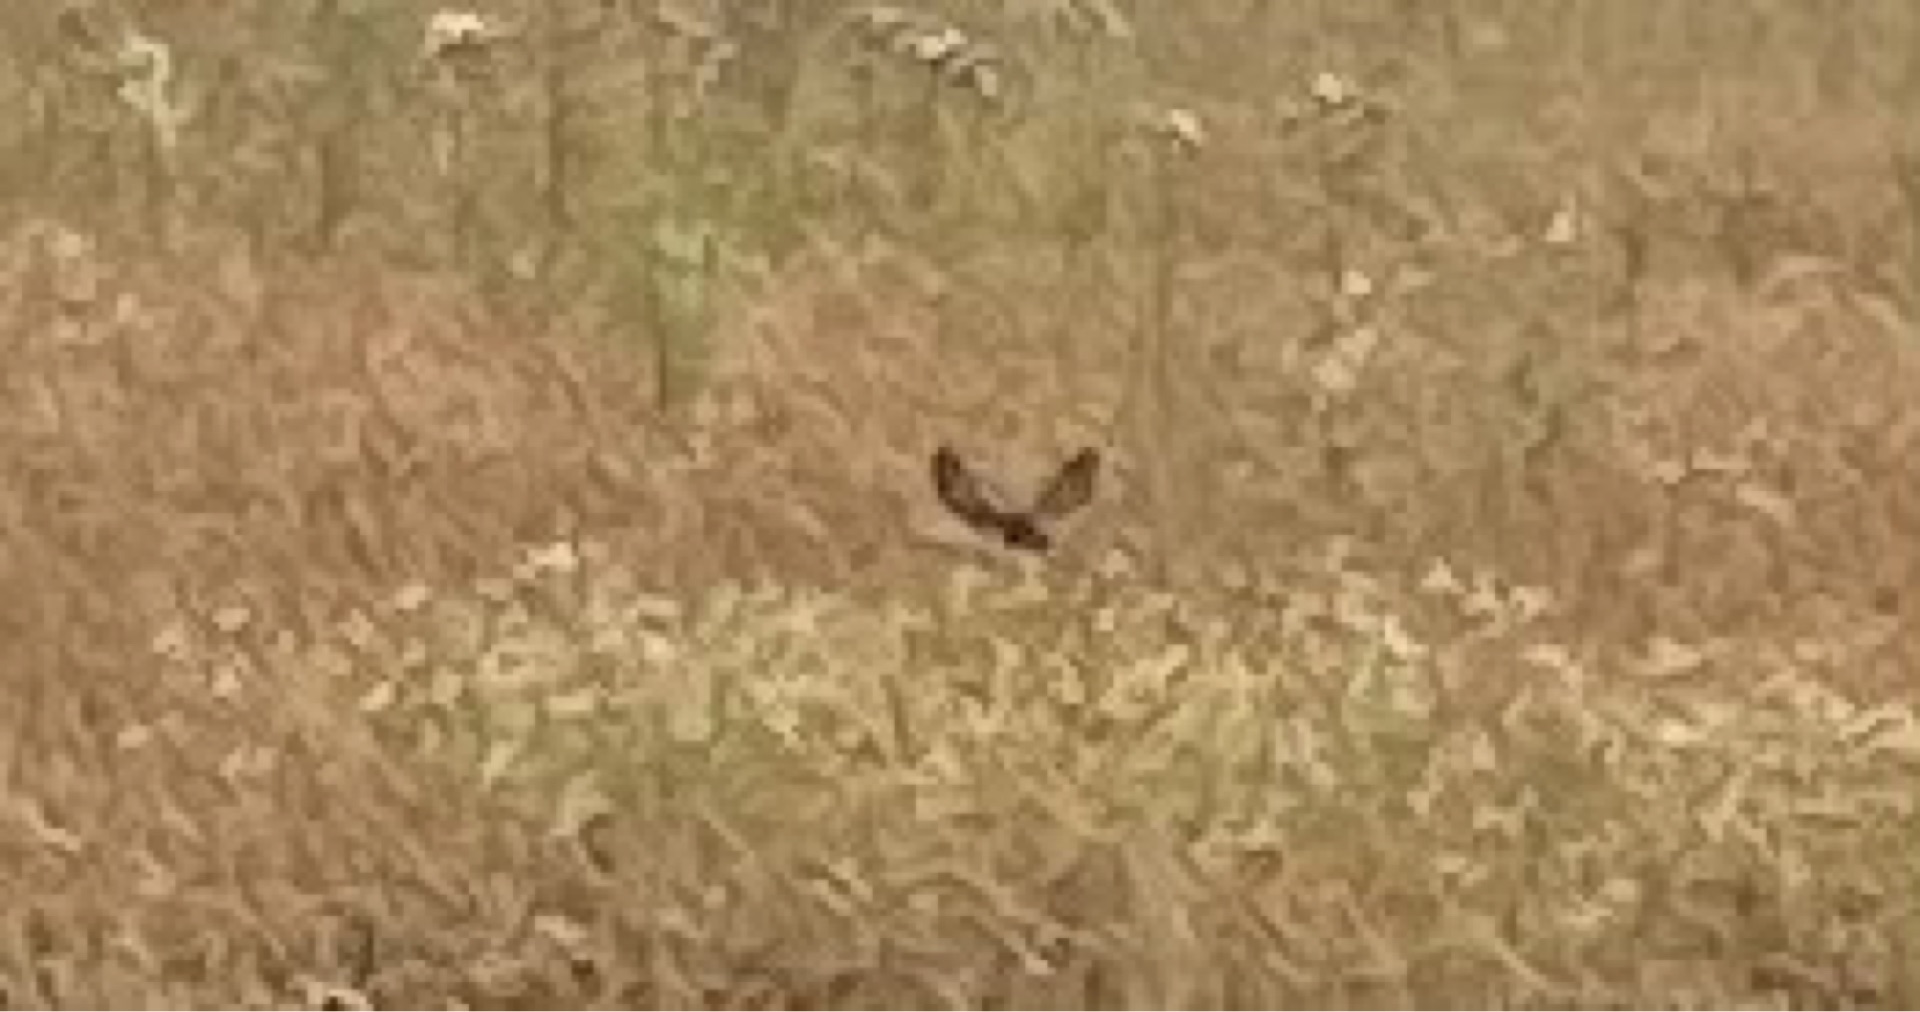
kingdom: Animalia
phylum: Chordata
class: Mammalia
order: Artiodactyla
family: Cervidae
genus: Capreolus
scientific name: Capreolus capreolus
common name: Rådyr
